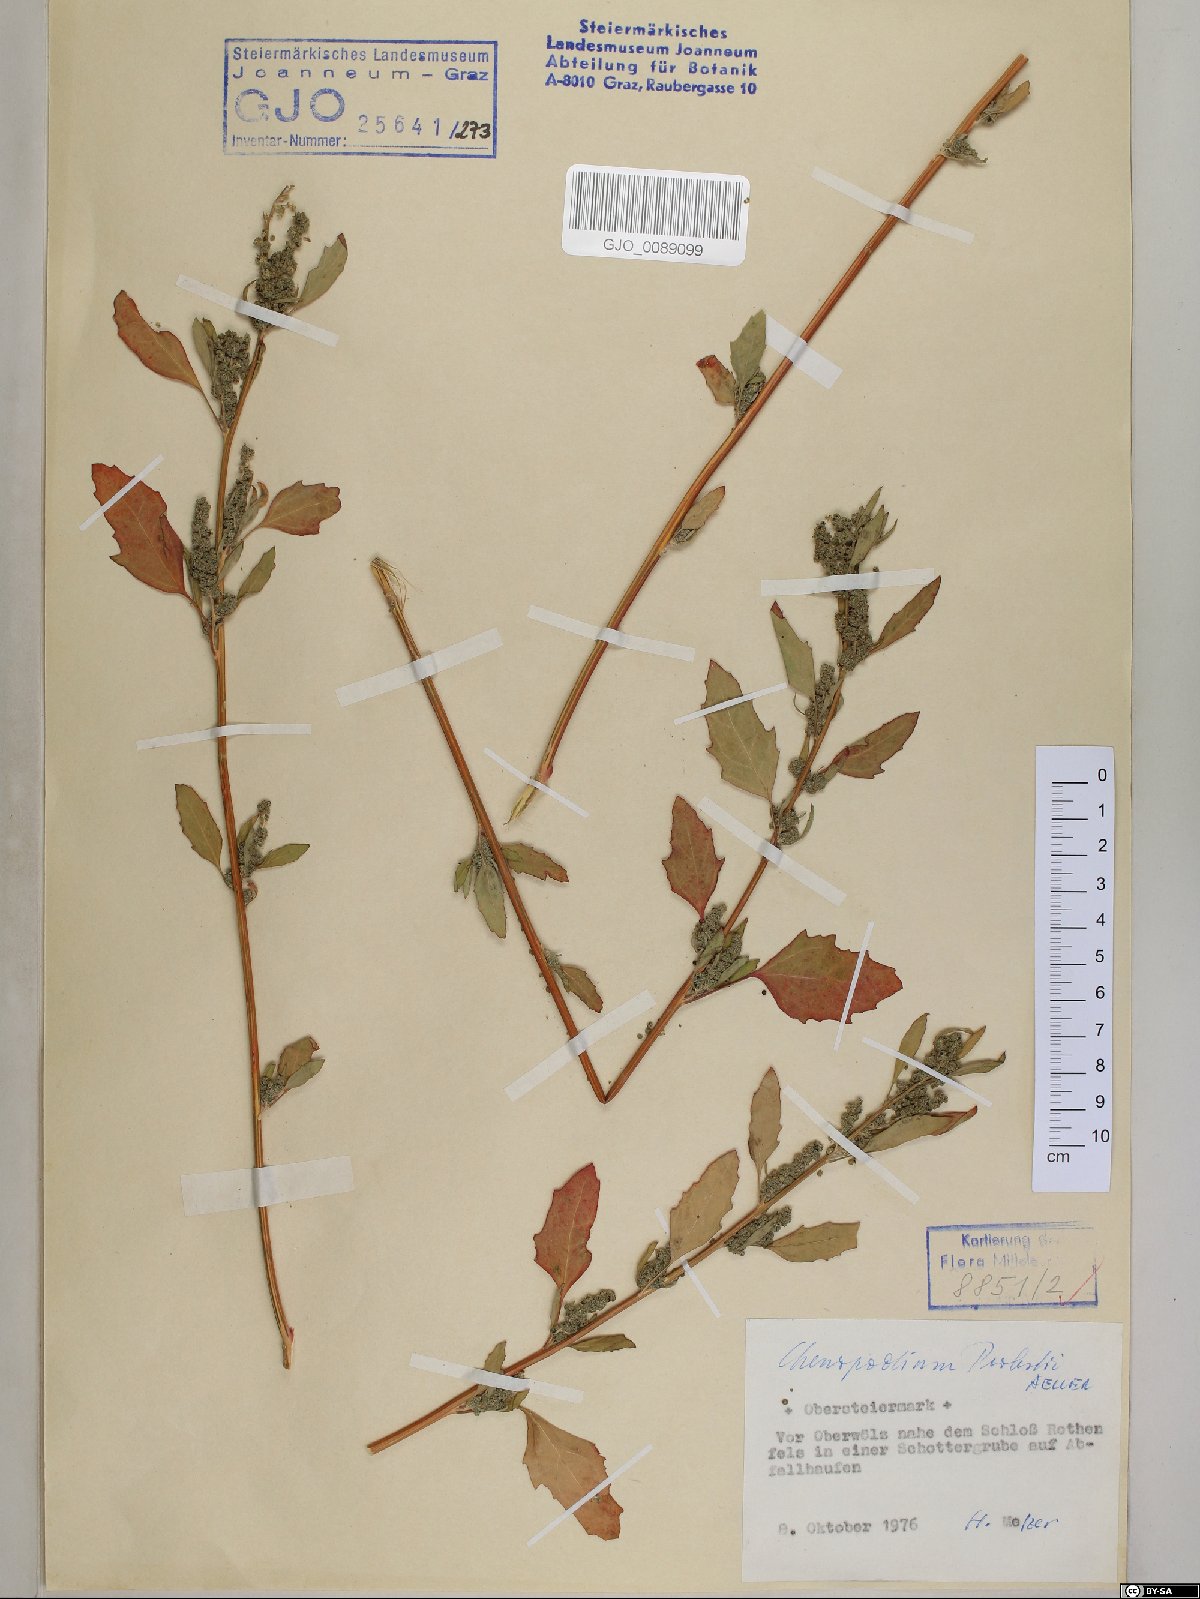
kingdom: Plantae
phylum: Tracheophyta
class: Magnoliopsida
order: Caryophyllales
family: Amaranthaceae
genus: Chenopodium
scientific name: Chenopodium probstii
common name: Probst's goosefoot
